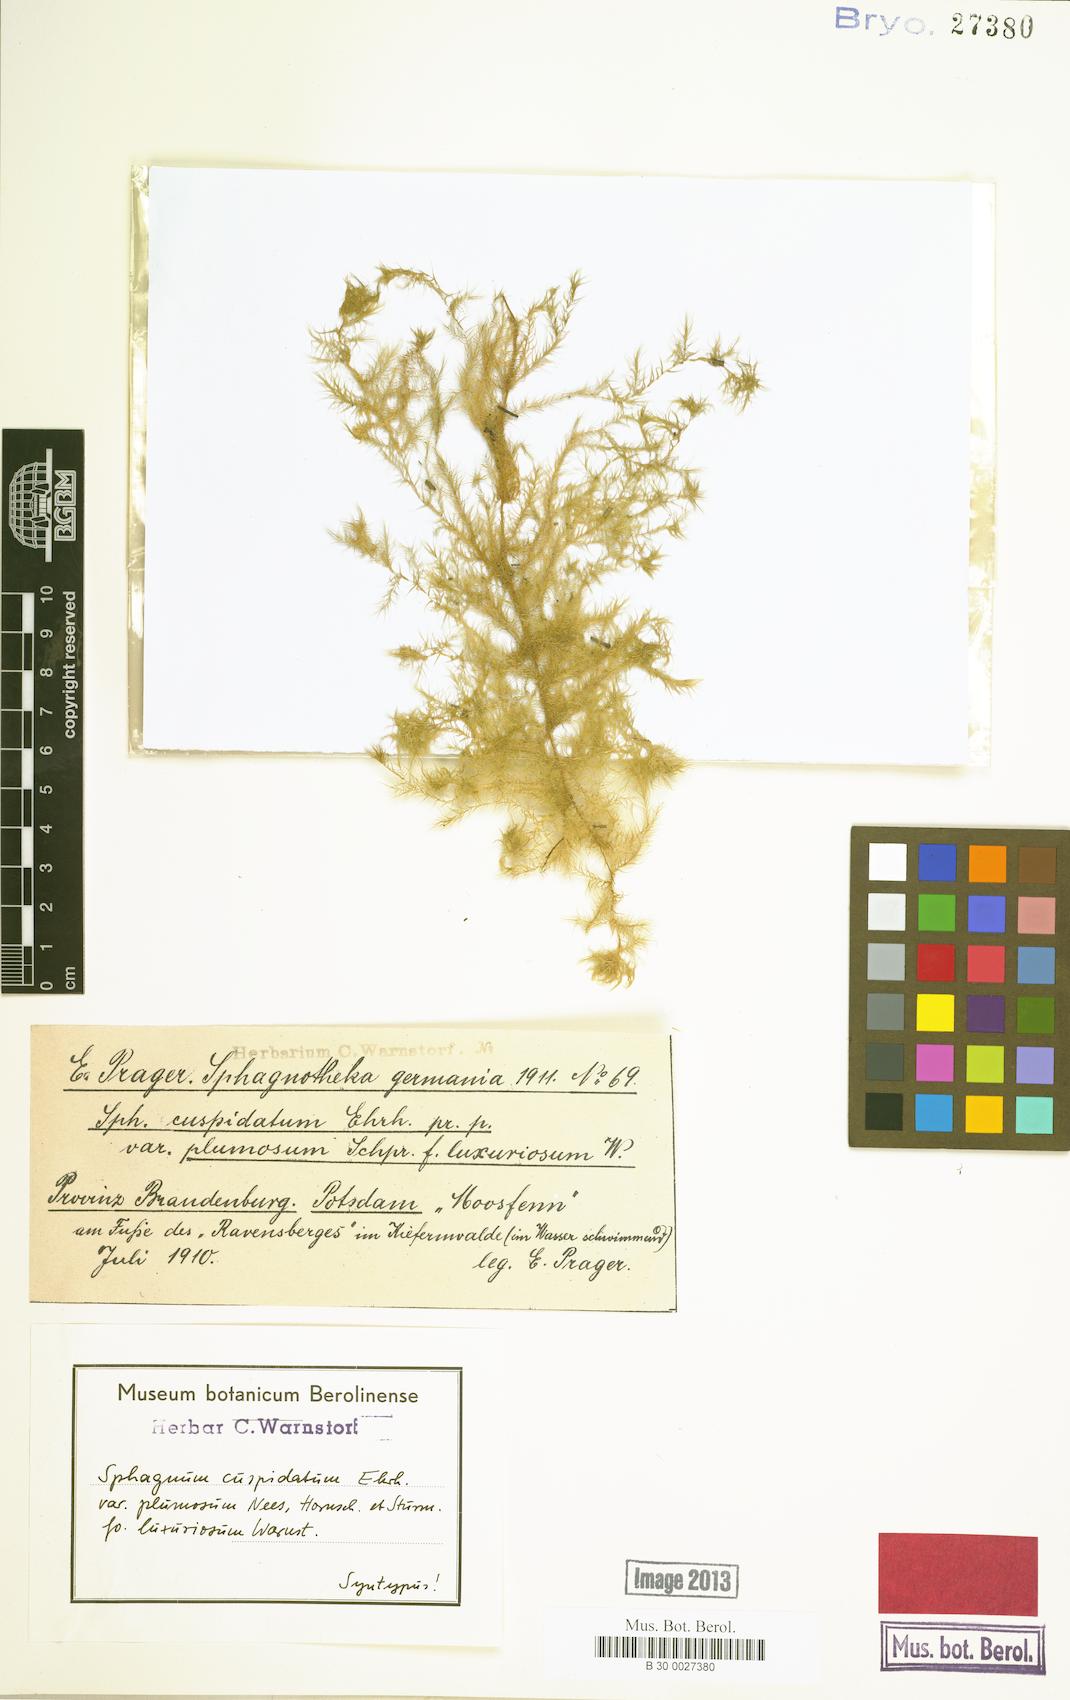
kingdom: Plantae
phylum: Bryophyta
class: Sphagnopsida
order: Sphagnales
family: Sphagnaceae
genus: Sphagnum
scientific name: Sphagnum cuspidatum
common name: Feathery peat moss
